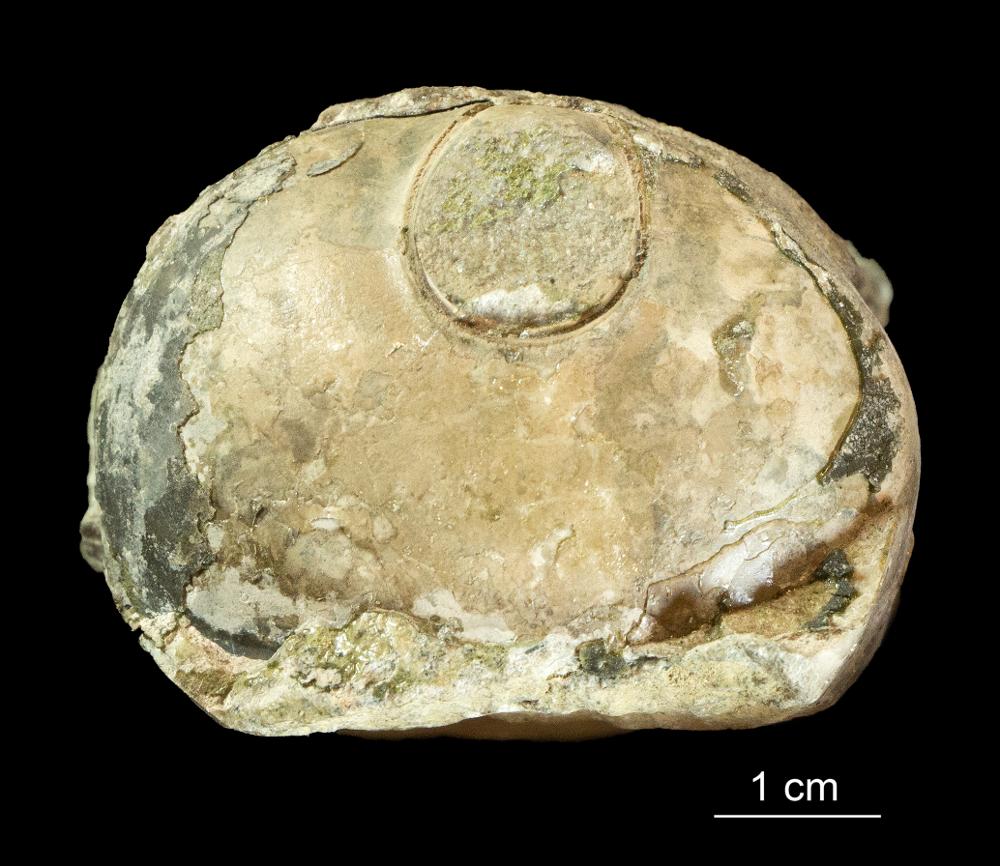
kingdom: Animalia
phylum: Mollusca
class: Cephalopoda
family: Endoceratidae
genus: Endoceras
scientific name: Endoceras
